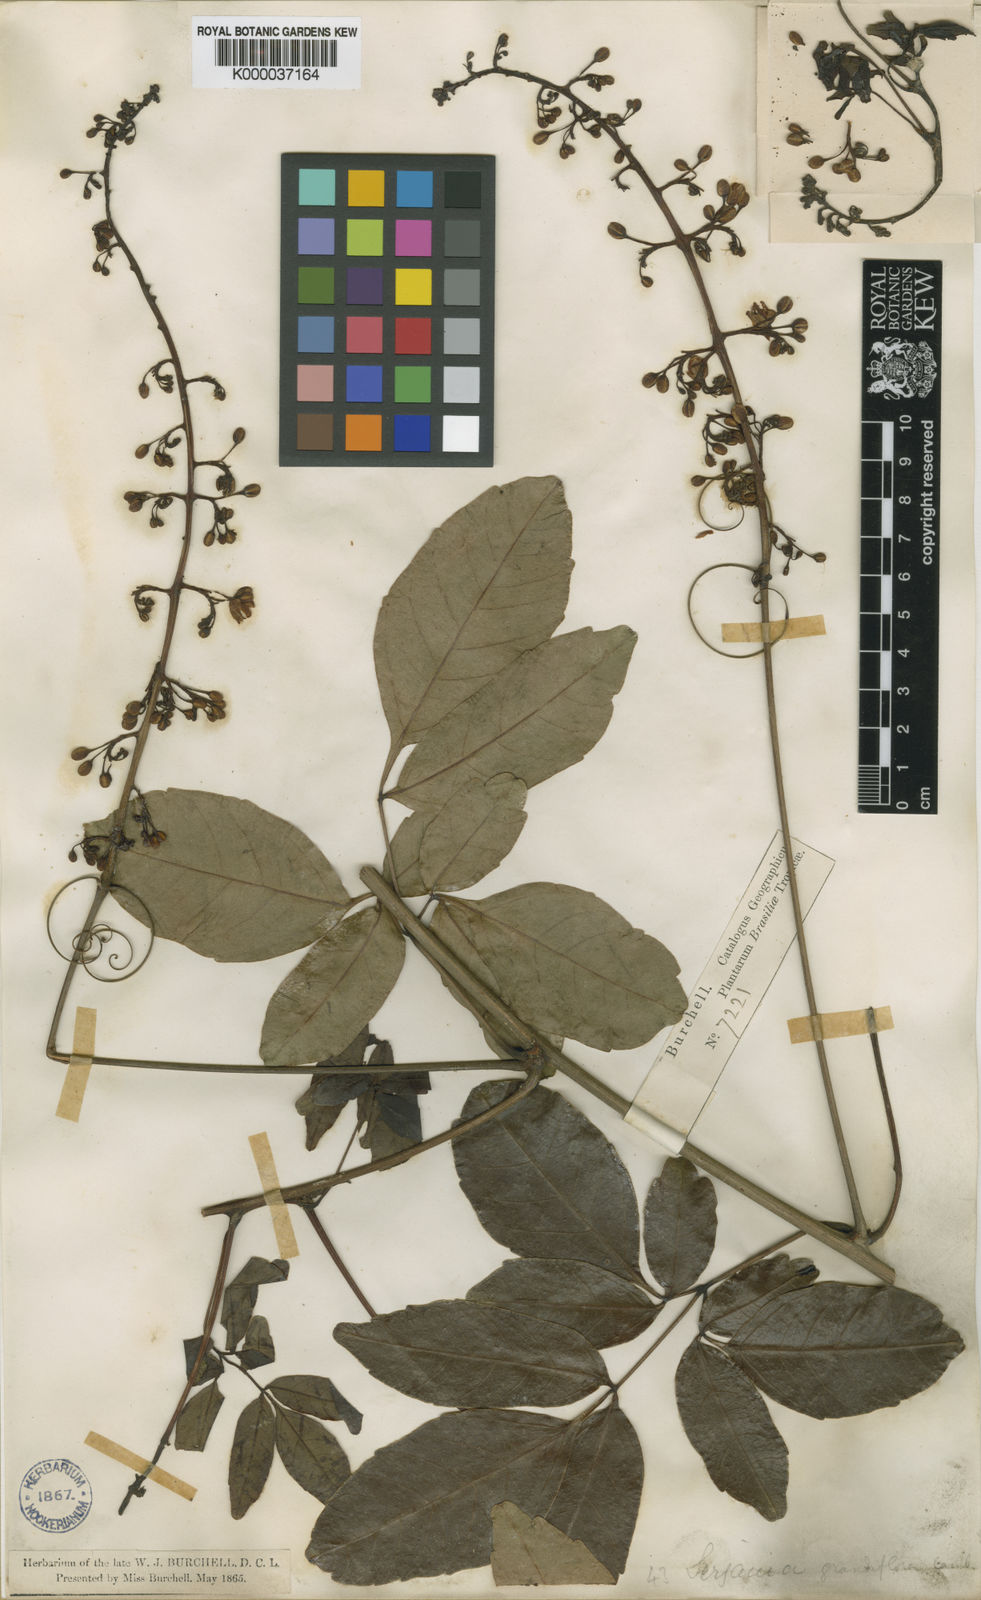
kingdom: Plantae
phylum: Tracheophyta
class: Magnoliopsida
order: Sapindales
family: Sapindaceae
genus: Serjania
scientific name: Serjania caracasana
